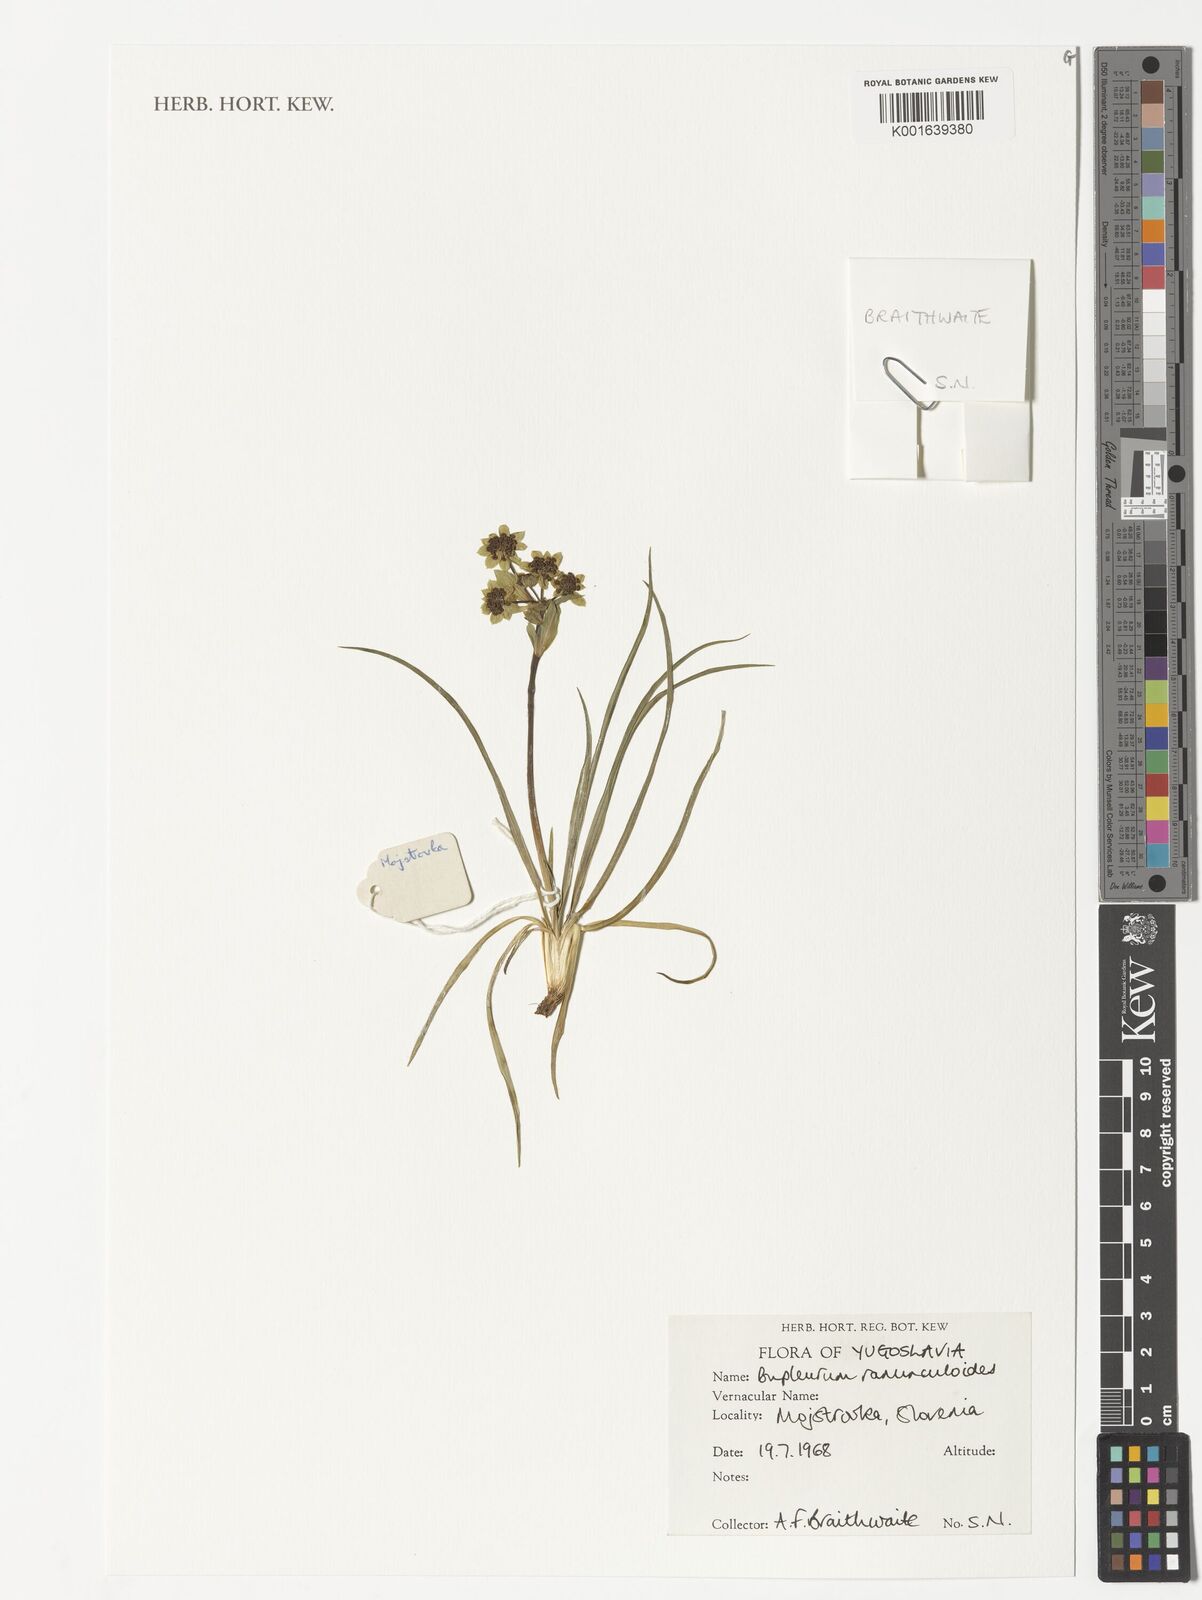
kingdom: Plantae
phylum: Tracheophyta
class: Magnoliopsida
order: Apiales
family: Apiaceae
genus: Bupleurum
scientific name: Bupleurum ranunculoides
